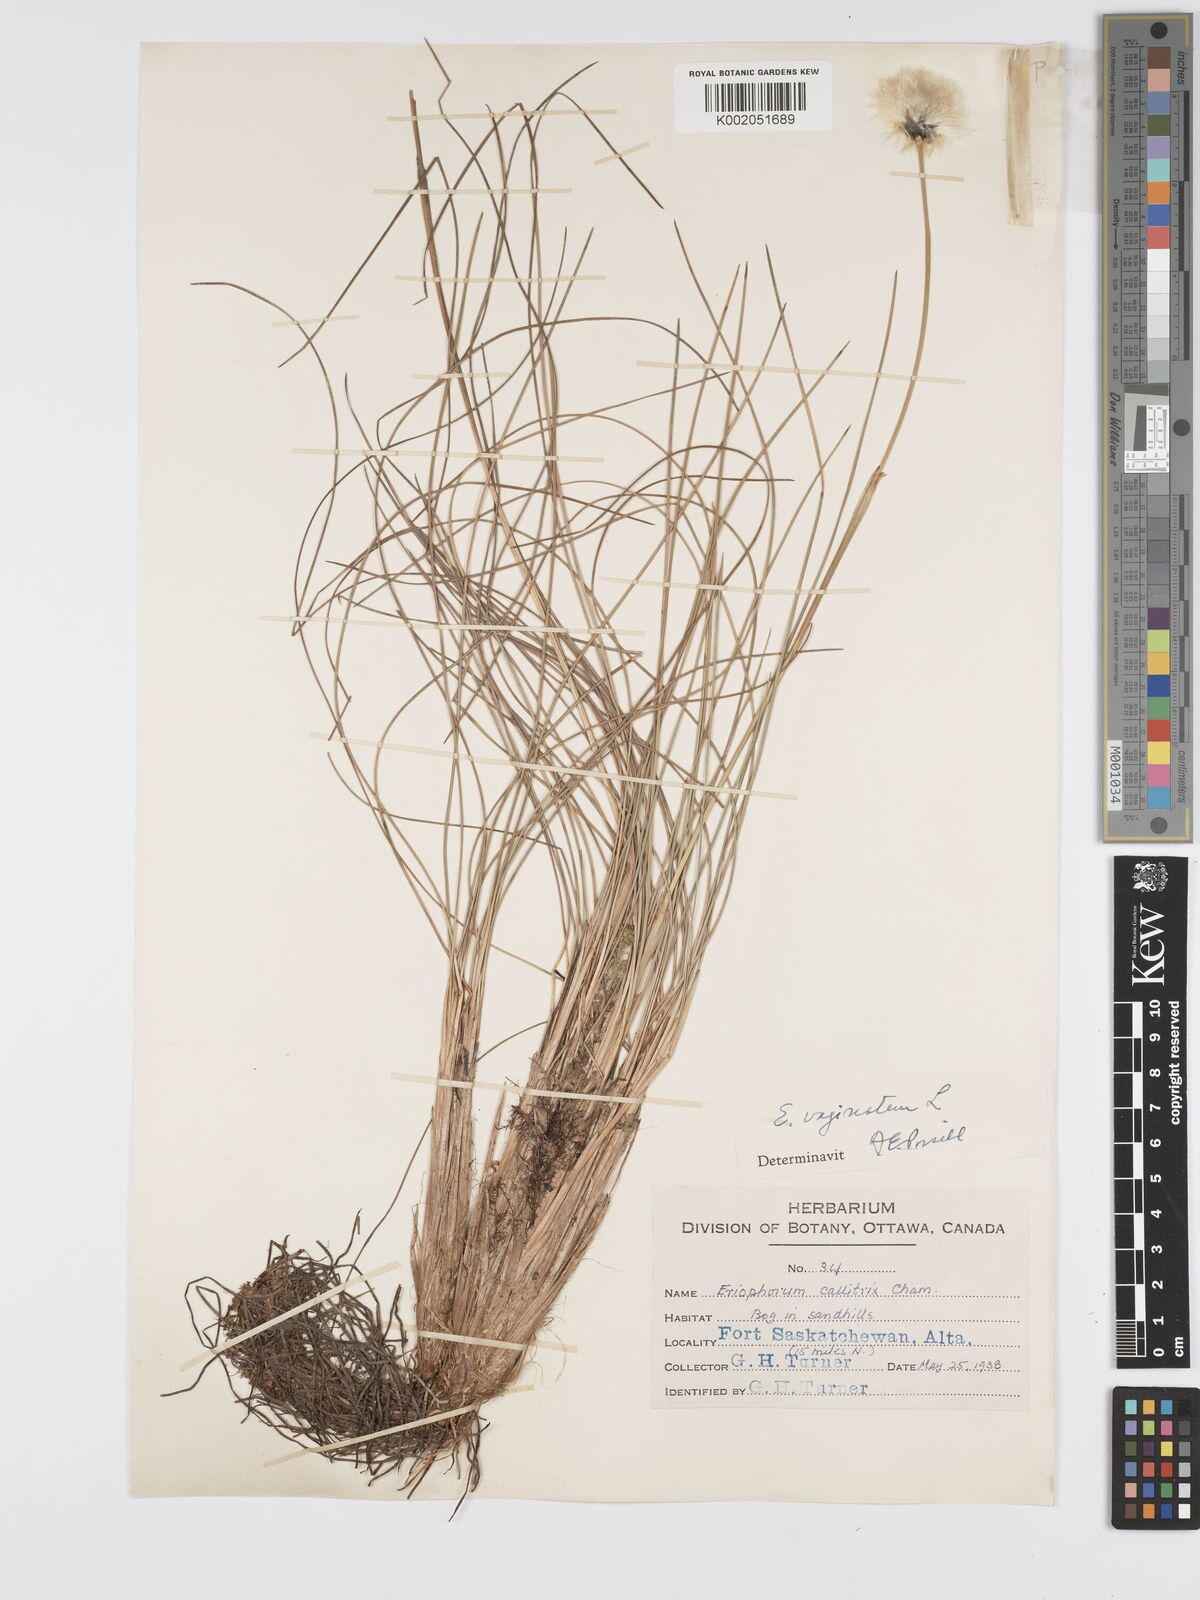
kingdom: Plantae
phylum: Tracheophyta
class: Liliopsida
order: Poales
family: Cyperaceae
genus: Eriophorum
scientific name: Eriophorum vaginatum
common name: Hare's-tail cottongrass
